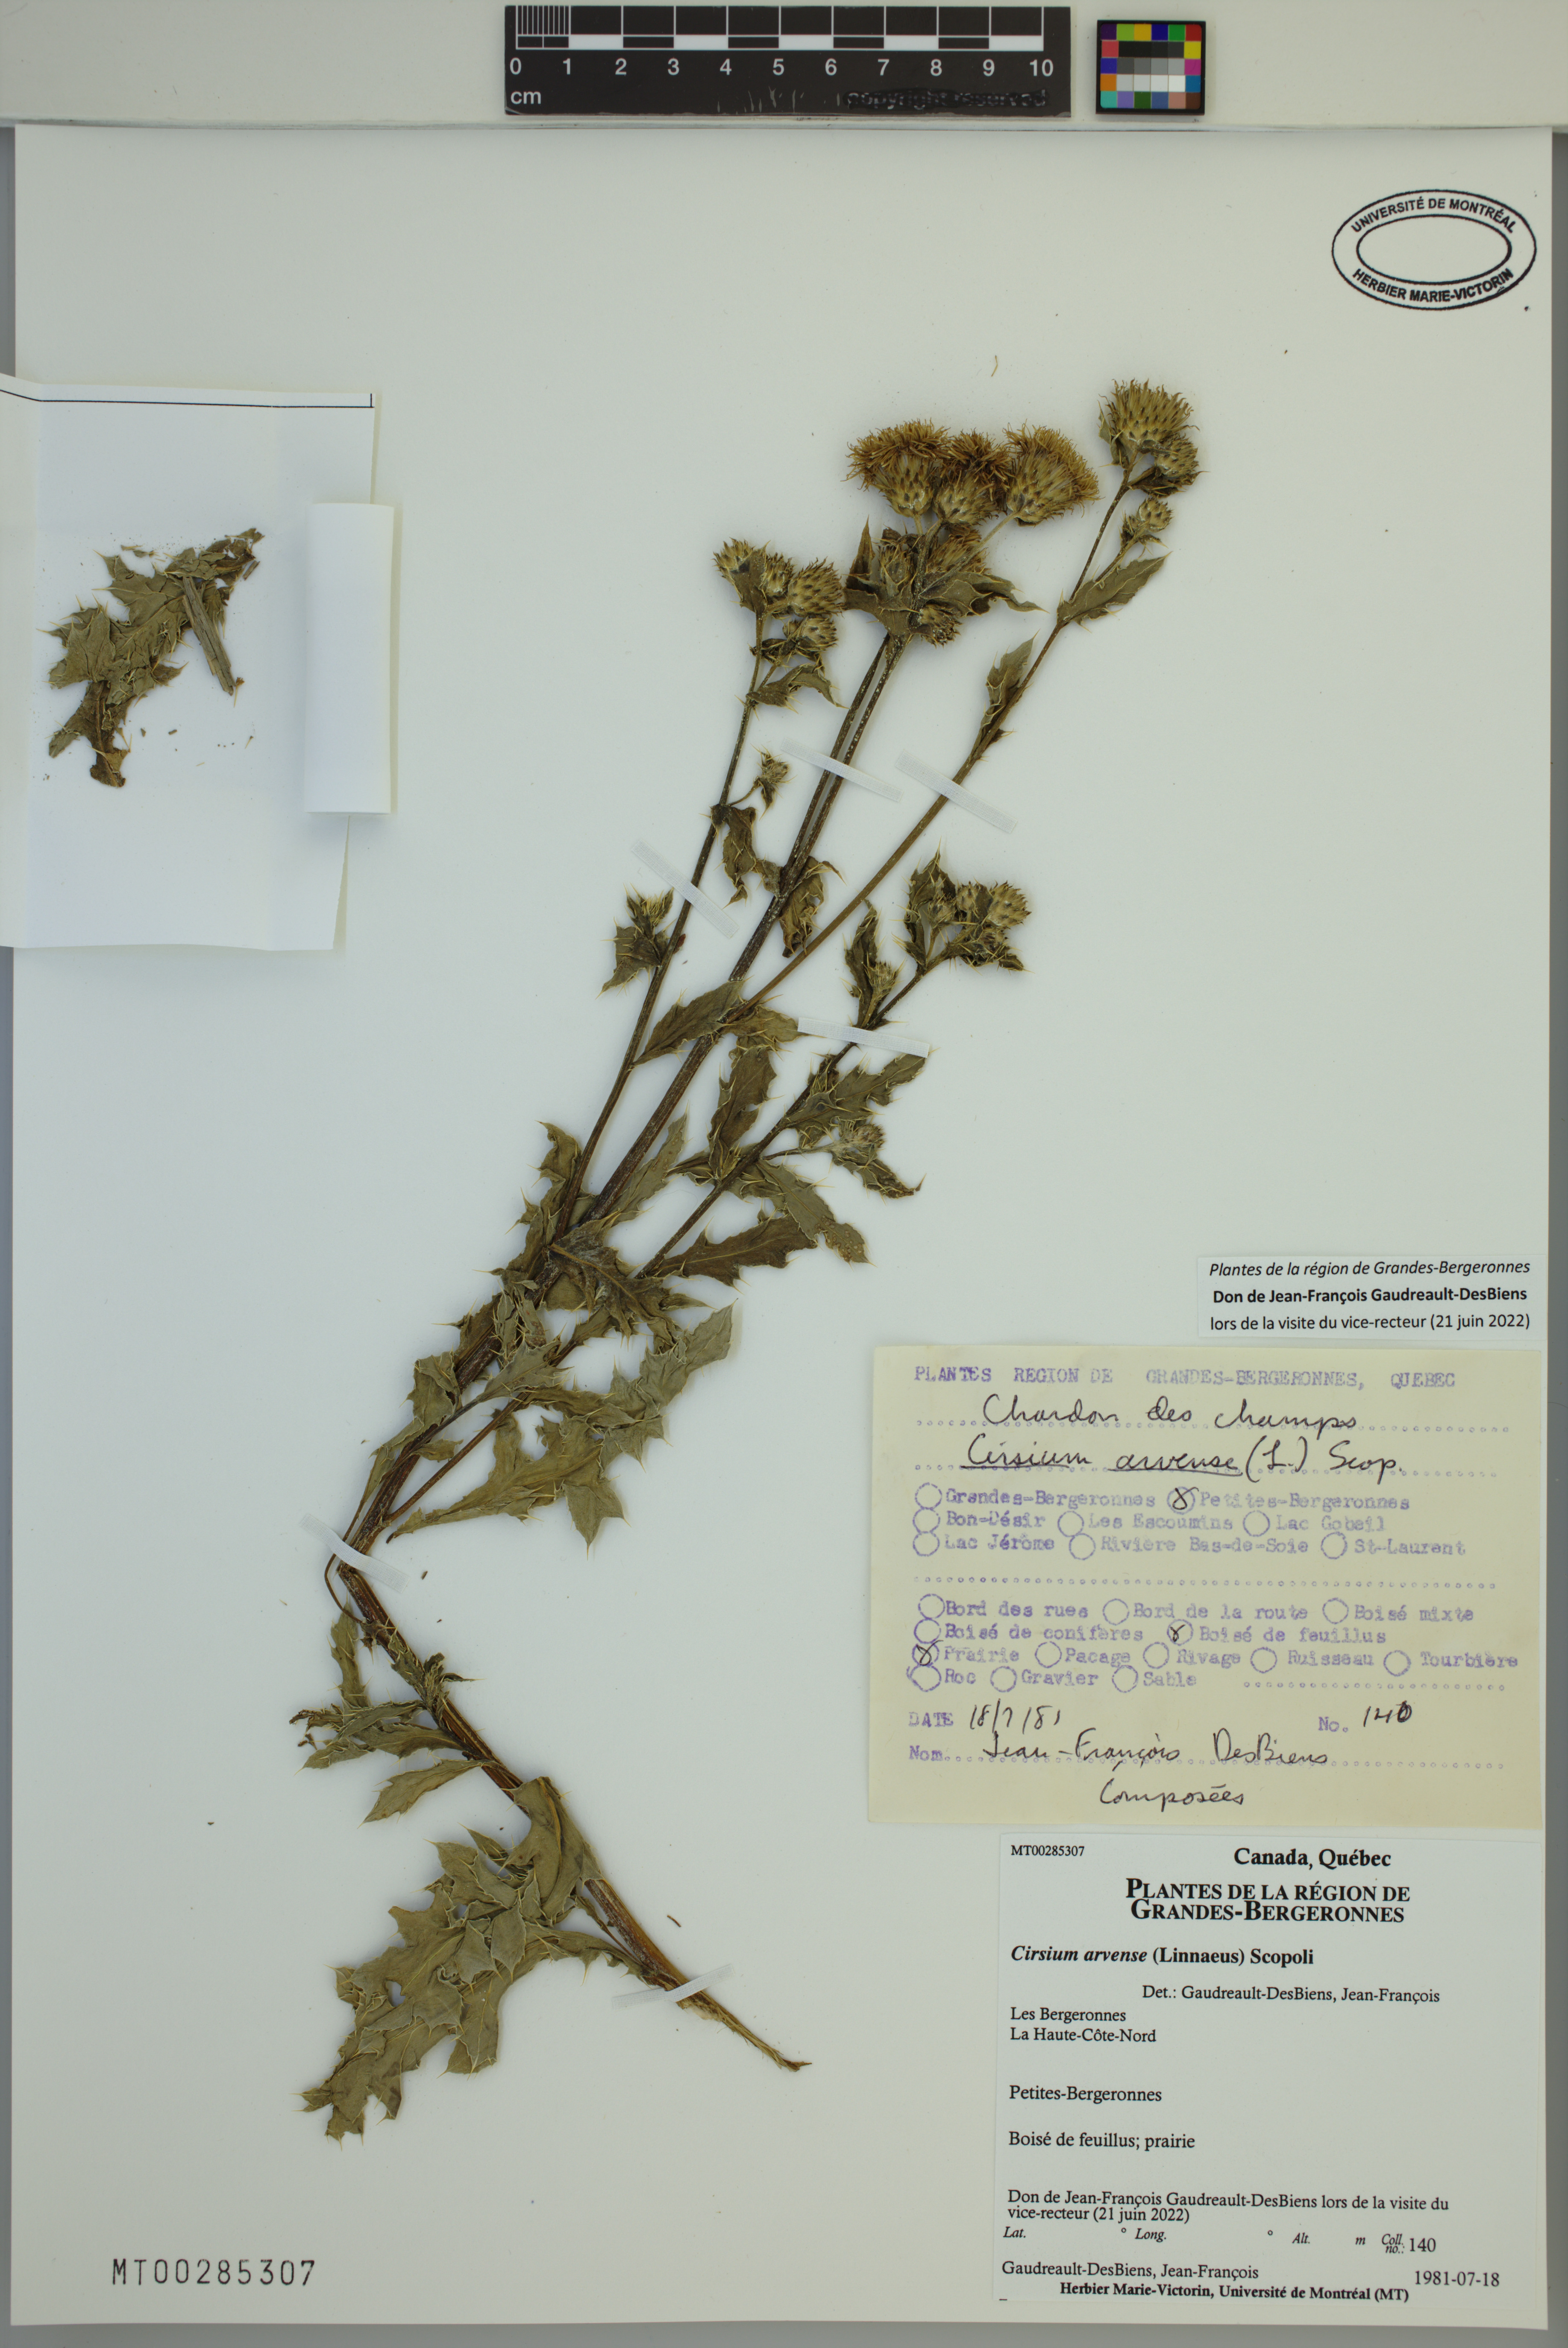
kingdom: Plantae
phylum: Tracheophyta
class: Magnoliopsida
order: Asterales
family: Asteraceae
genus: Cirsium
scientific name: Cirsium arvense
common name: Creeping thistle
